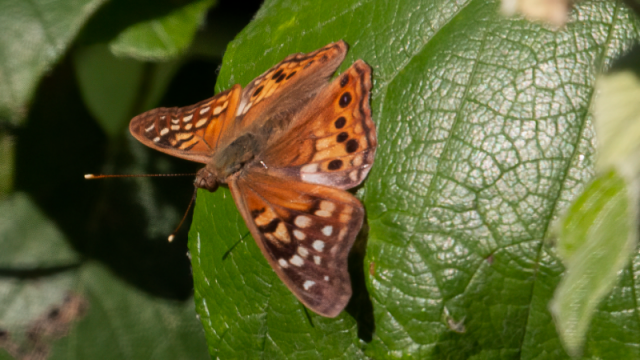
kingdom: Animalia
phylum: Arthropoda
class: Insecta
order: Lepidoptera
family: Nymphalidae
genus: Asterocampa
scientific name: Asterocampa clyton
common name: Tawny Emperor
